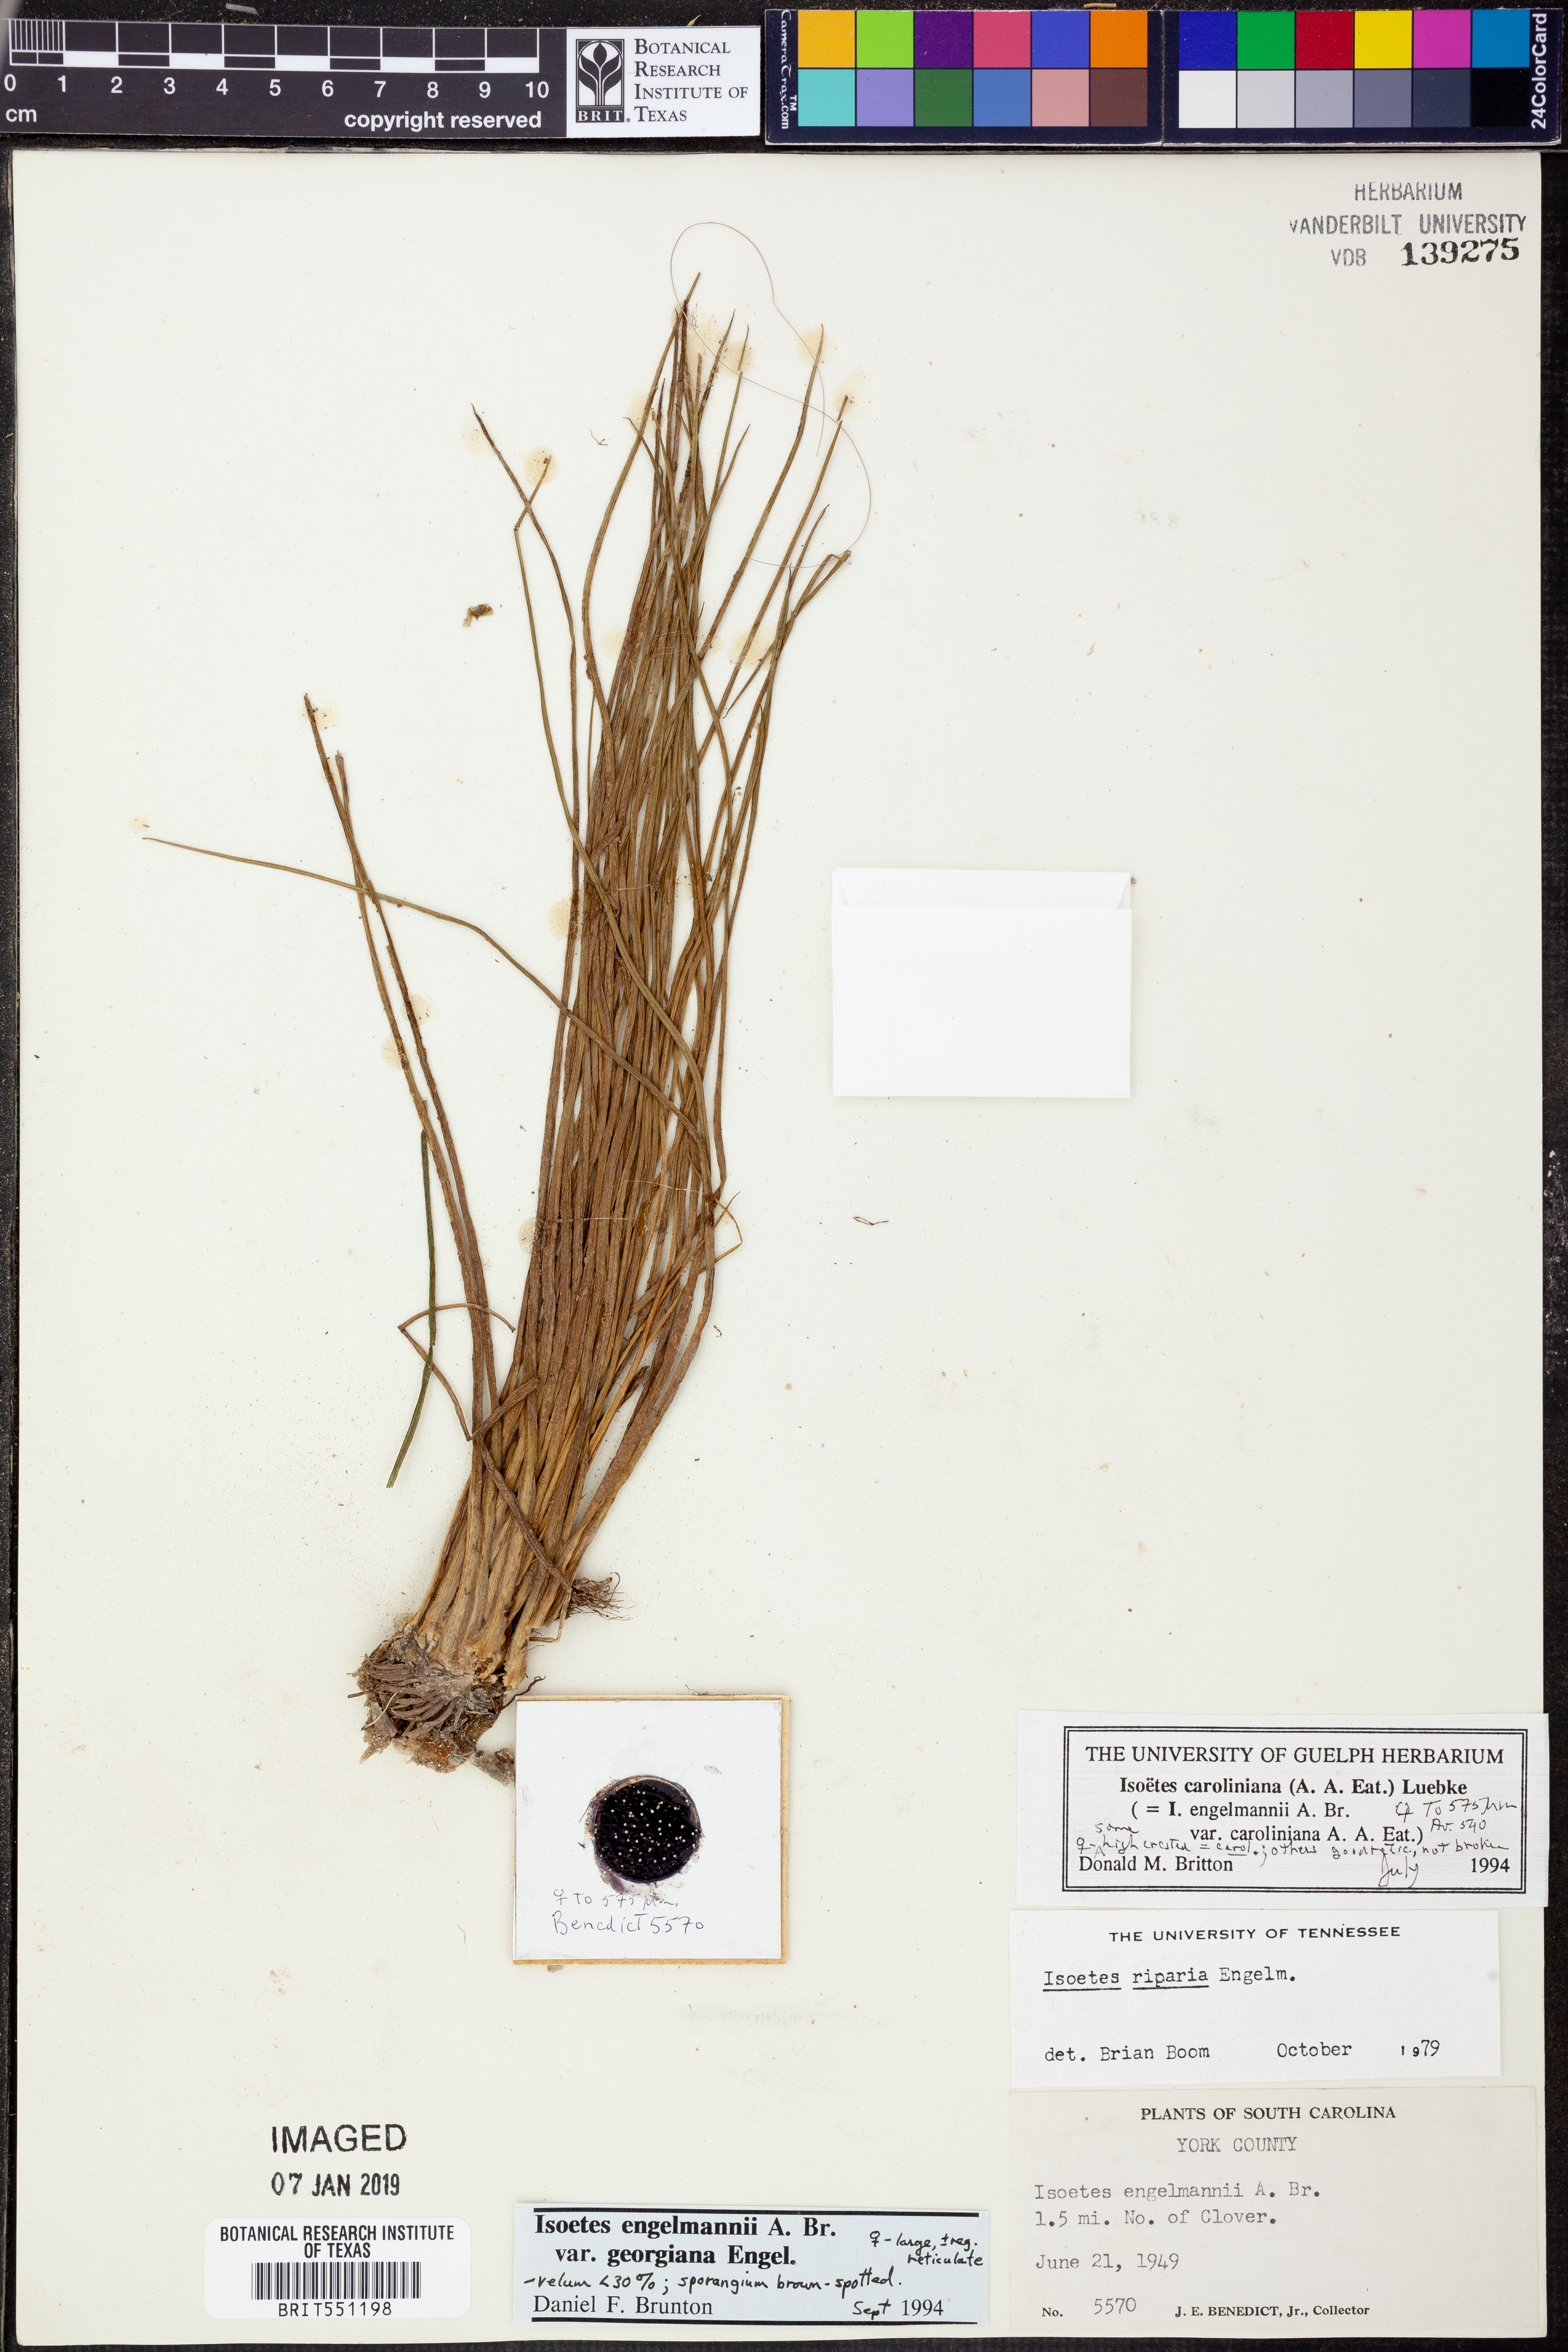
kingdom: Plantae
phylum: Tracheophyta
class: Lycopodiopsida
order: Isoetales
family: Isoetaceae
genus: Isoetes
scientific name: Isoetes appalachiana
